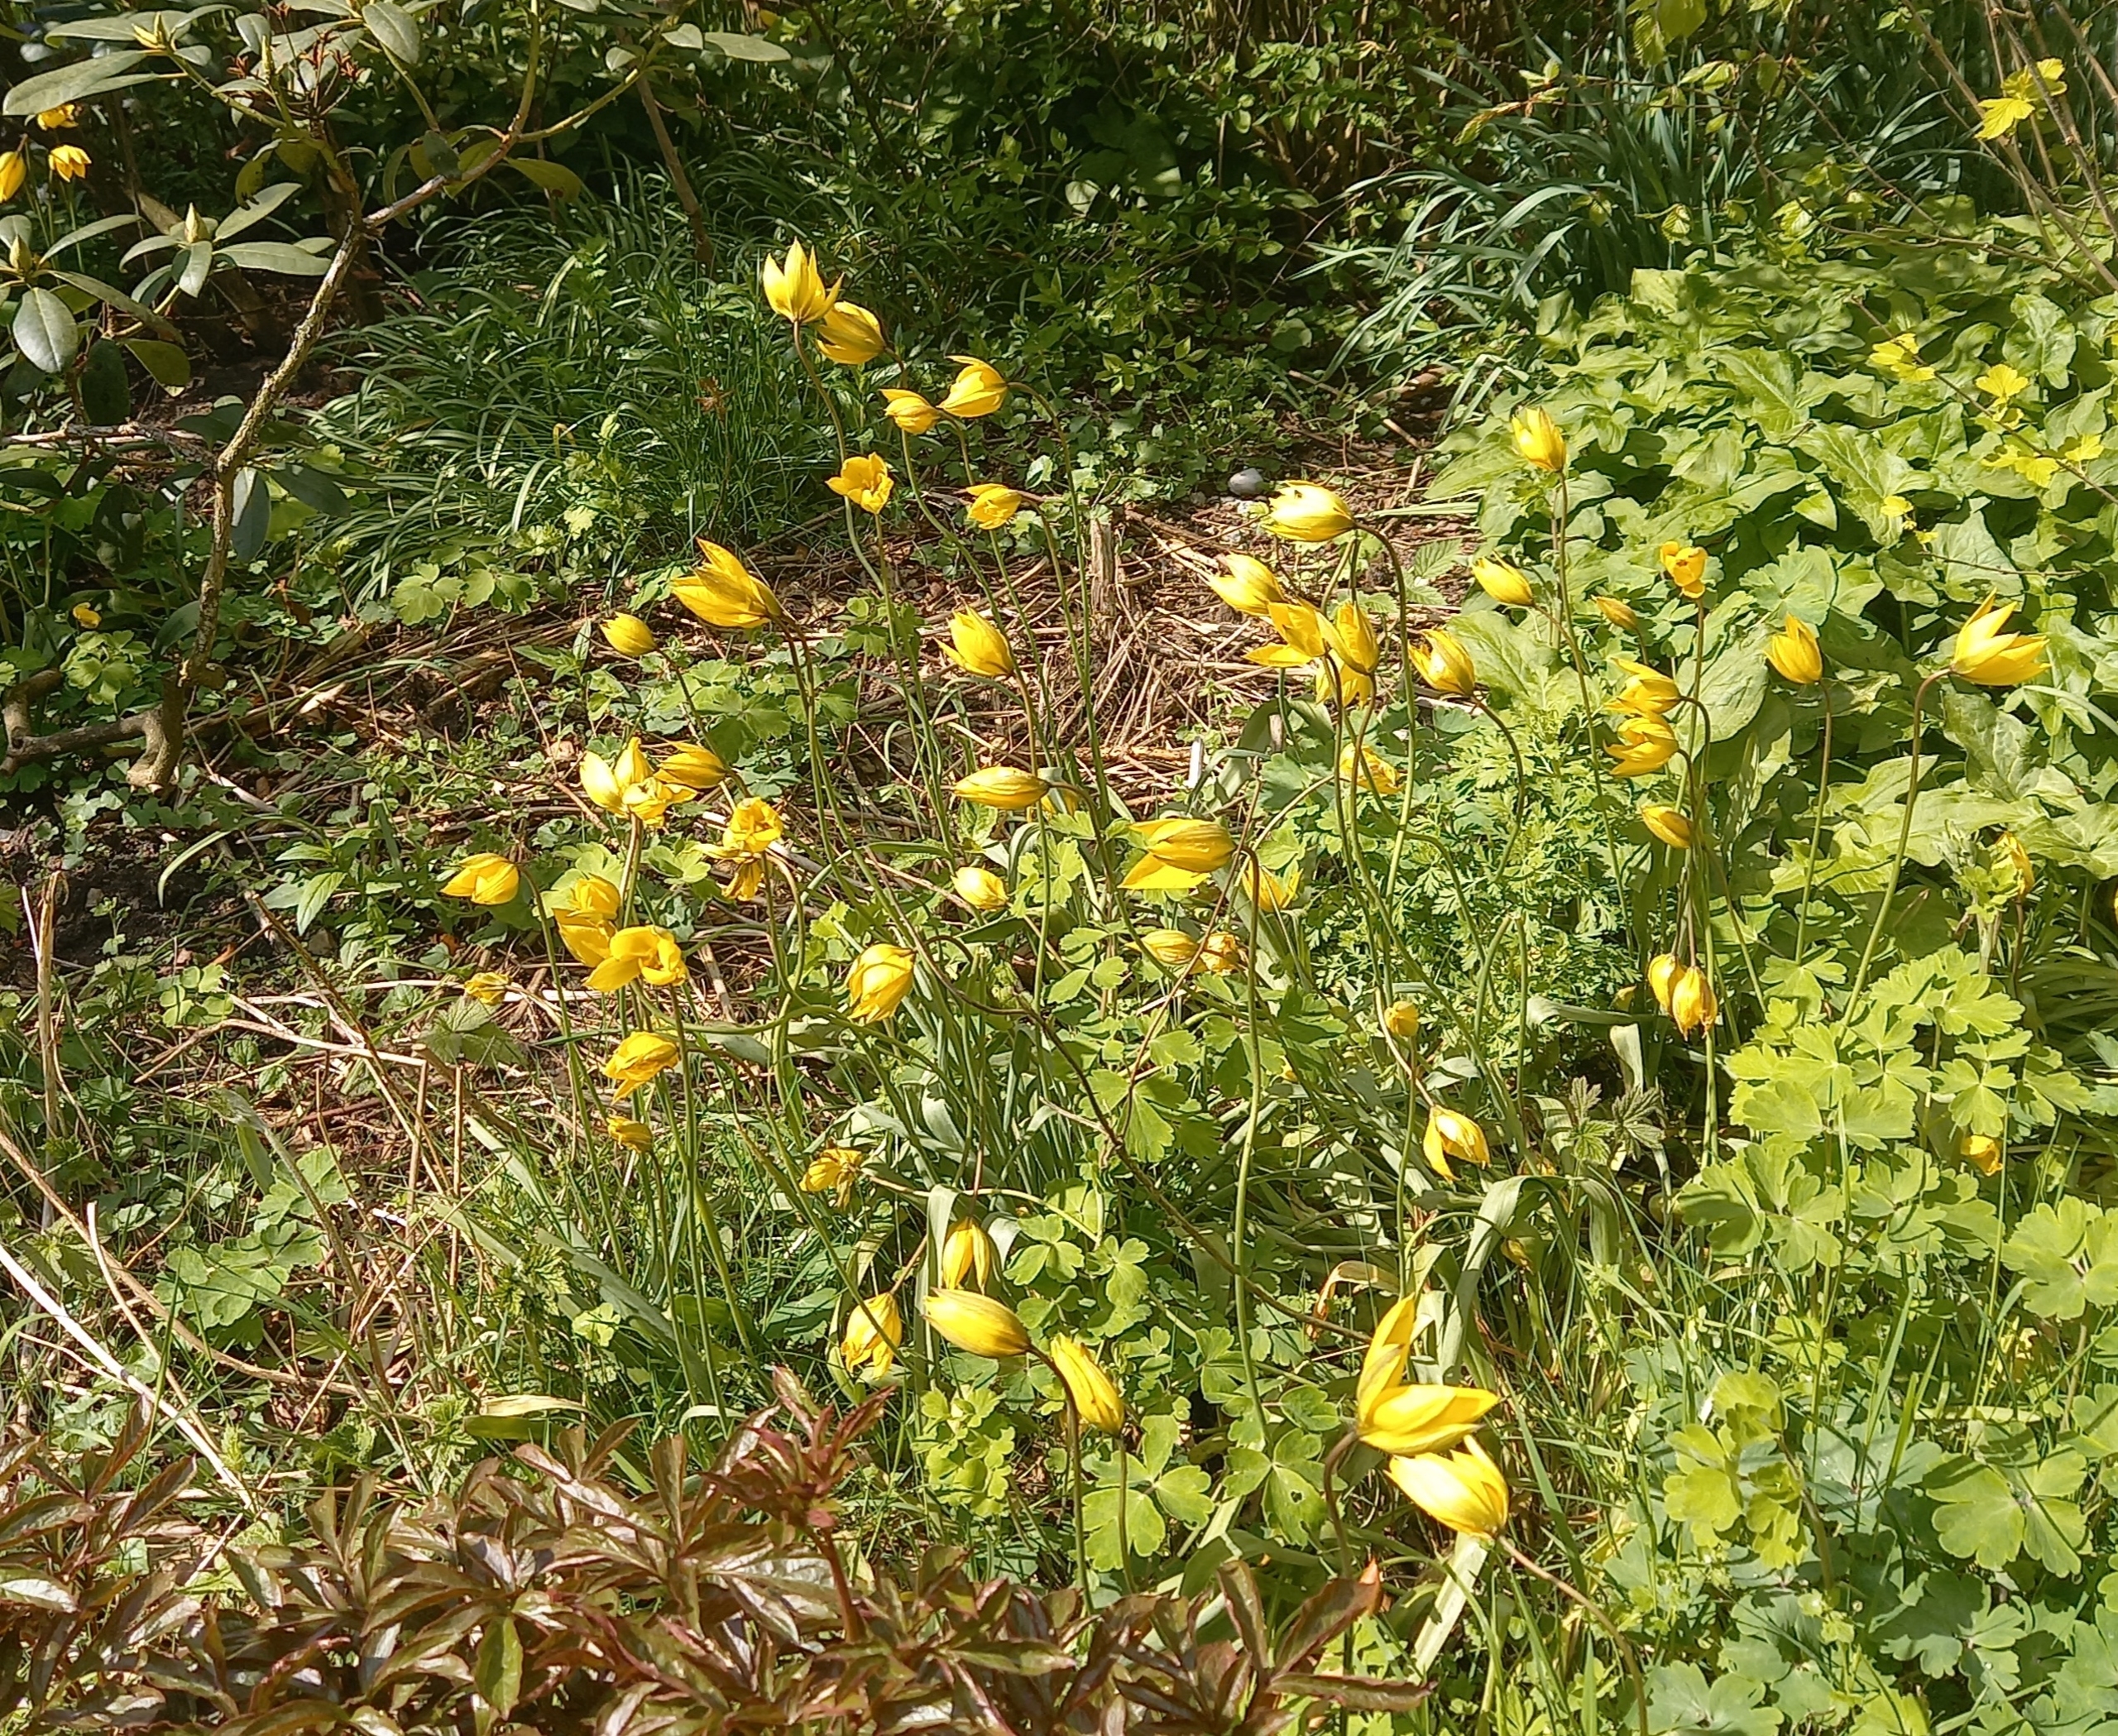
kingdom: Plantae
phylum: Tracheophyta
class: Liliopsida
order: Liliales
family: Liliaceae
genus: Tulipa
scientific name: Tulipa sylvestris
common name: Vild tulipan
